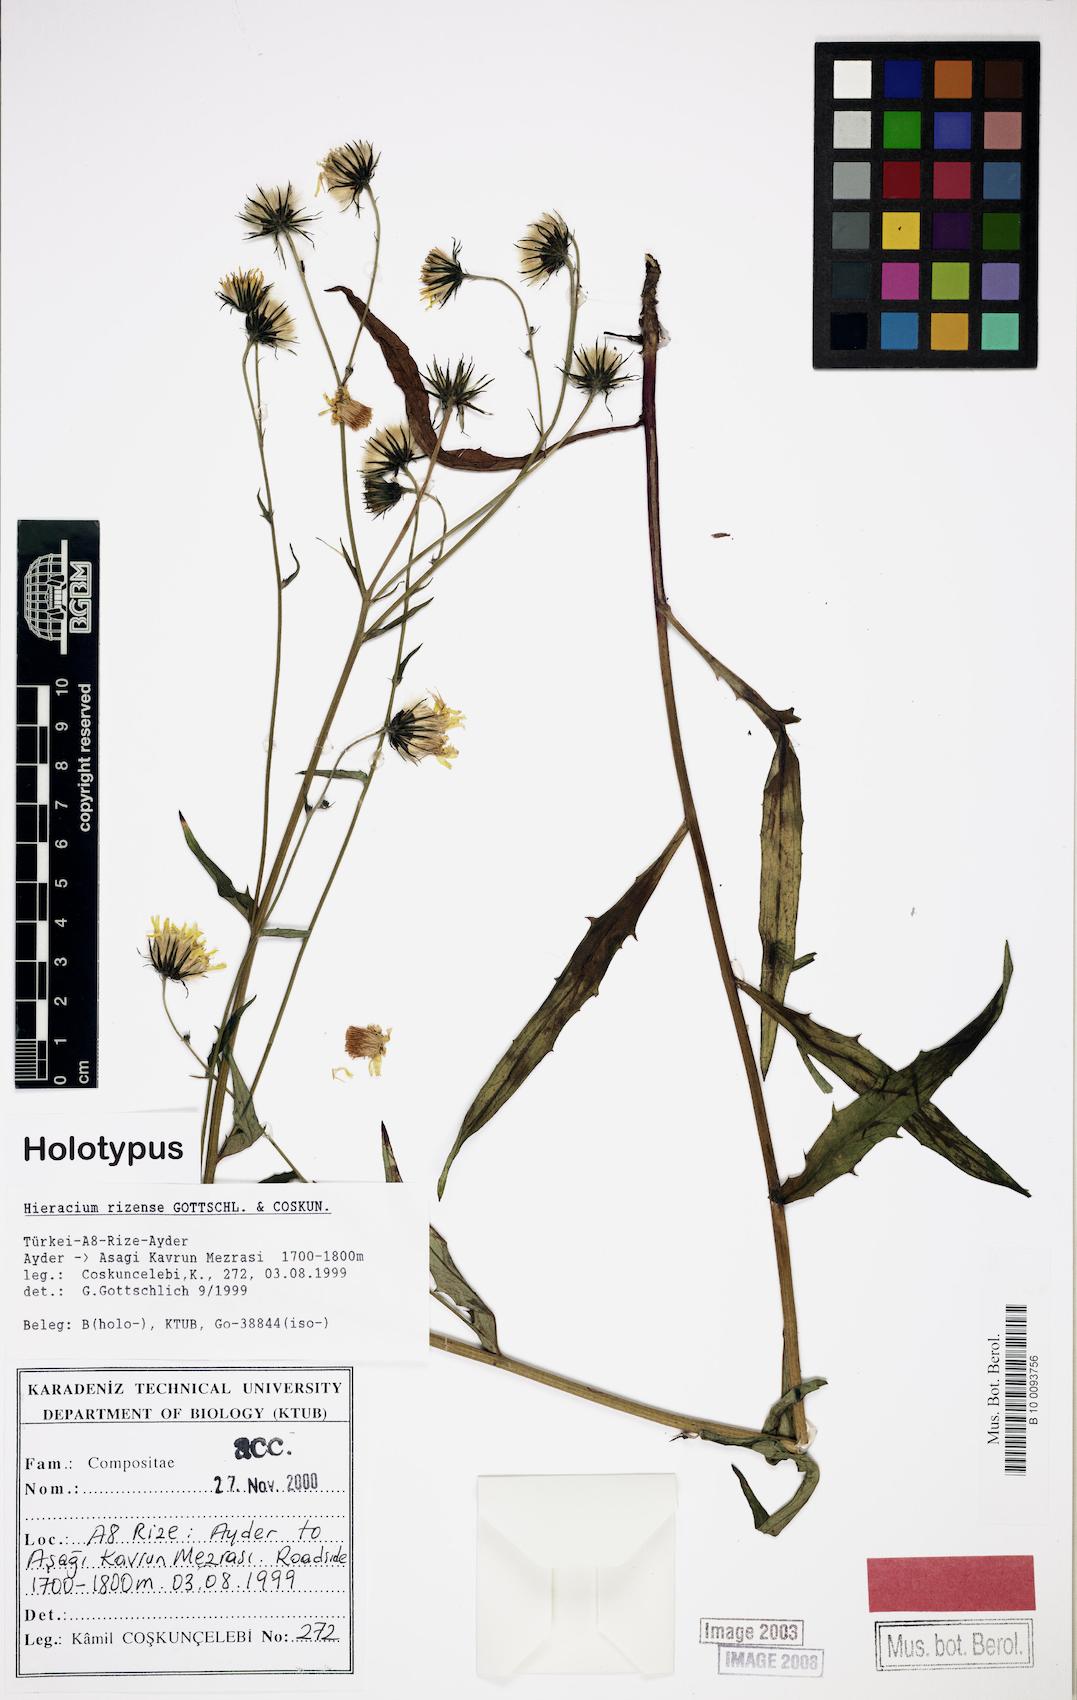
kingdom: Plantae
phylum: Tracheophyta
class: Magnoliopsida
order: Asterales
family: Asteraceae
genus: Hieracium
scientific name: Hieracium rizense
